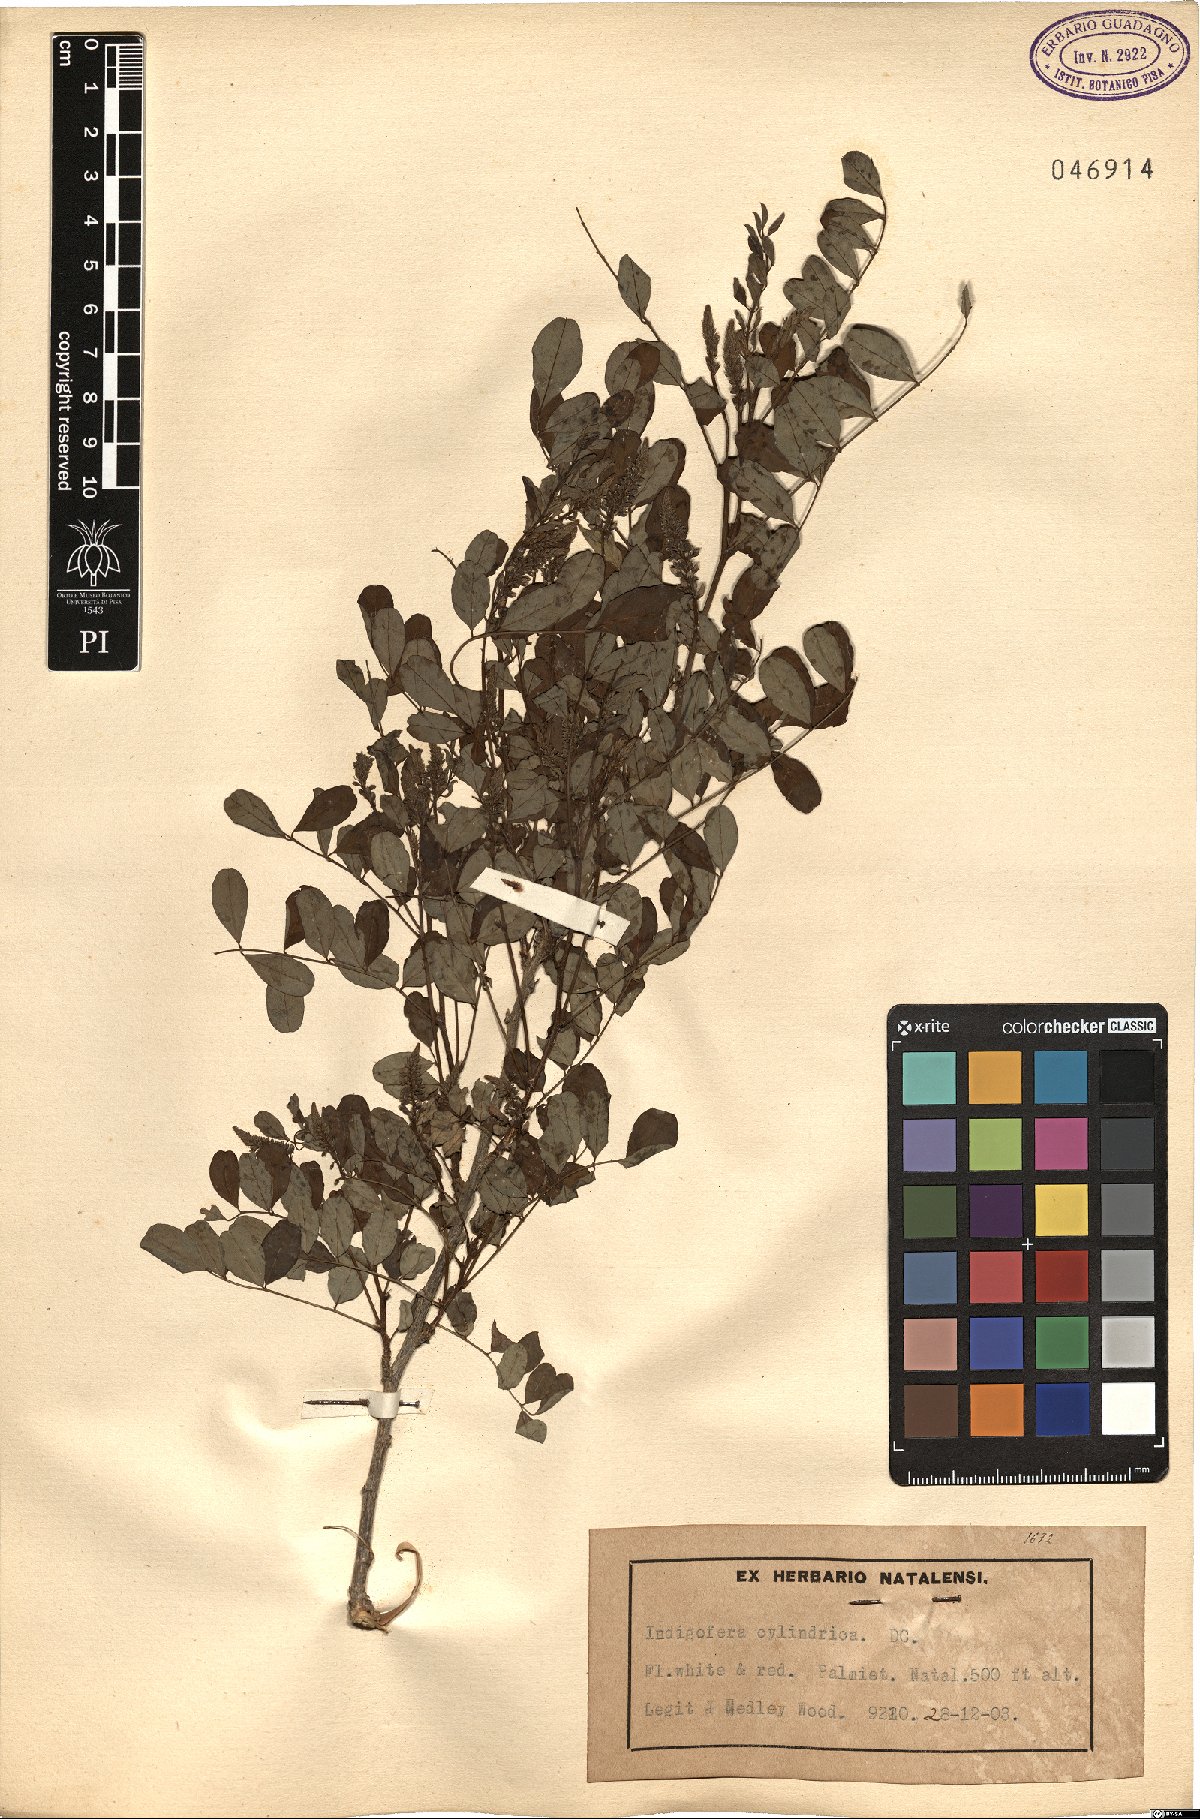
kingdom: Plantae
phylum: Tracheophyta
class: Magnoliopsida
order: Fabales
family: Fabaceae
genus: Indigofera
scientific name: Indigofera frutescens
